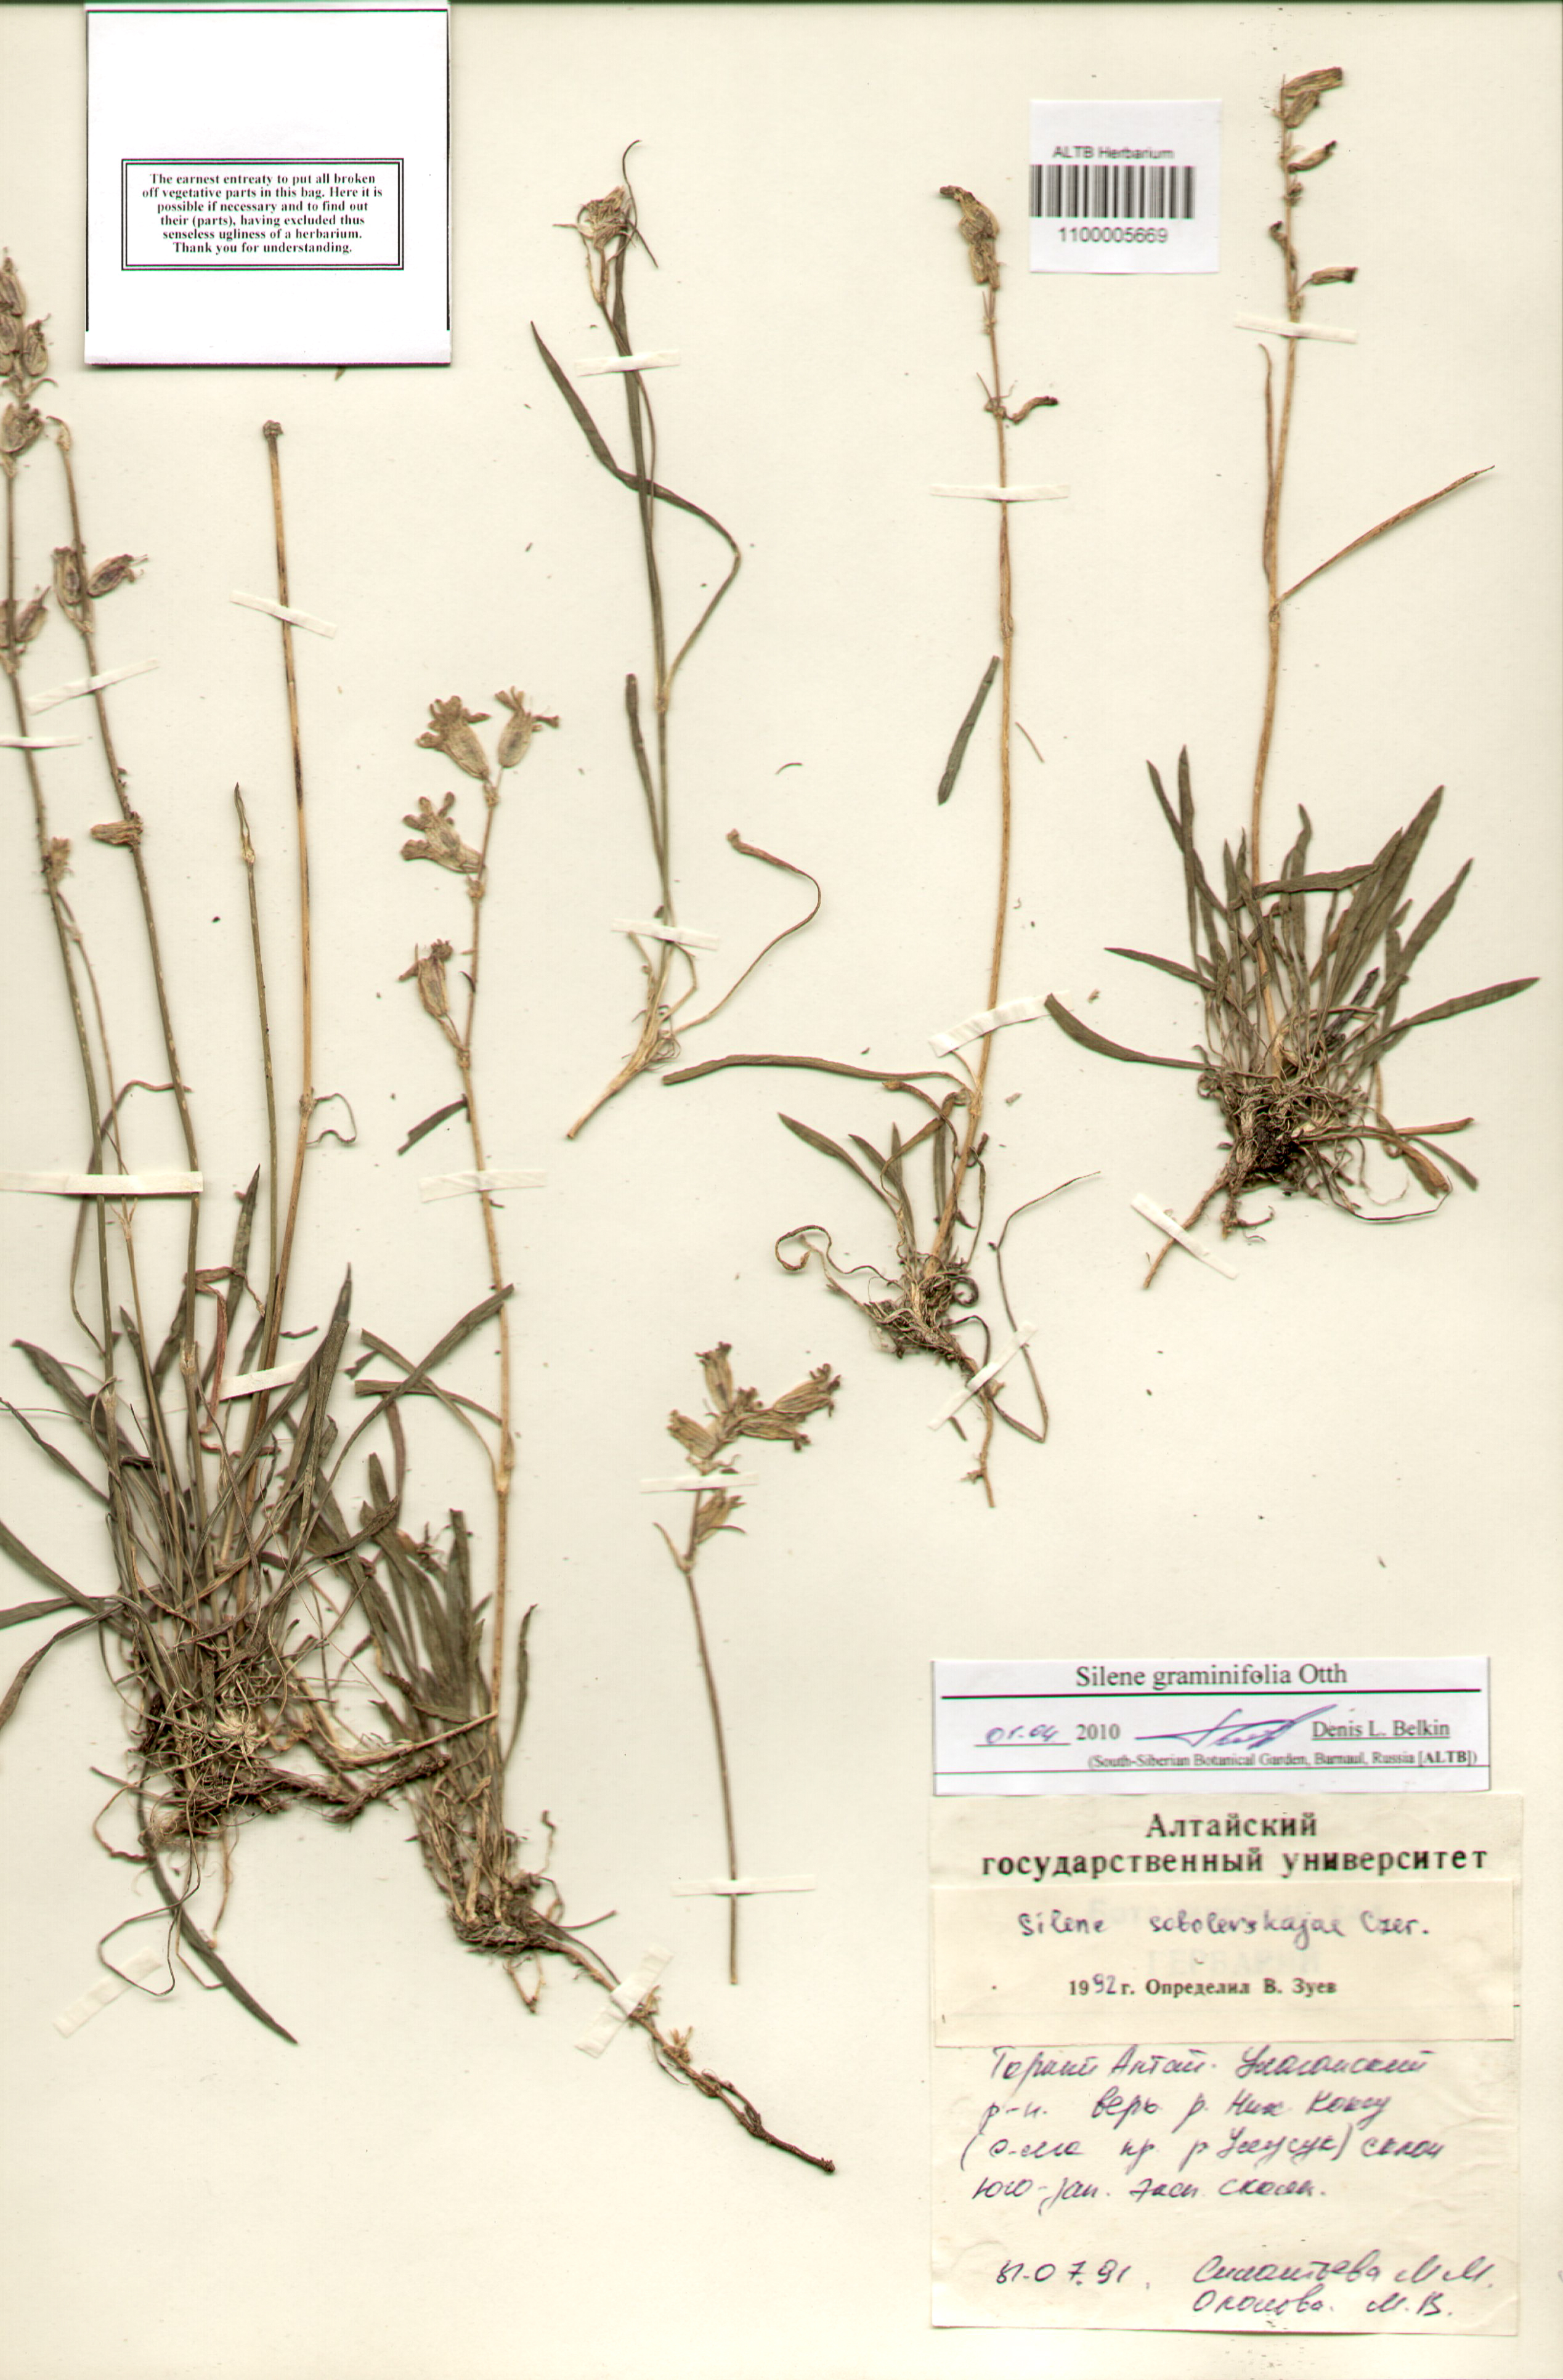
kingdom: Plantae
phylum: Tracheophyta
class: Magnoliopsida
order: Caryophyllales
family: Caryophyllaceae
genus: Silene
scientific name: Silene graminifolia
